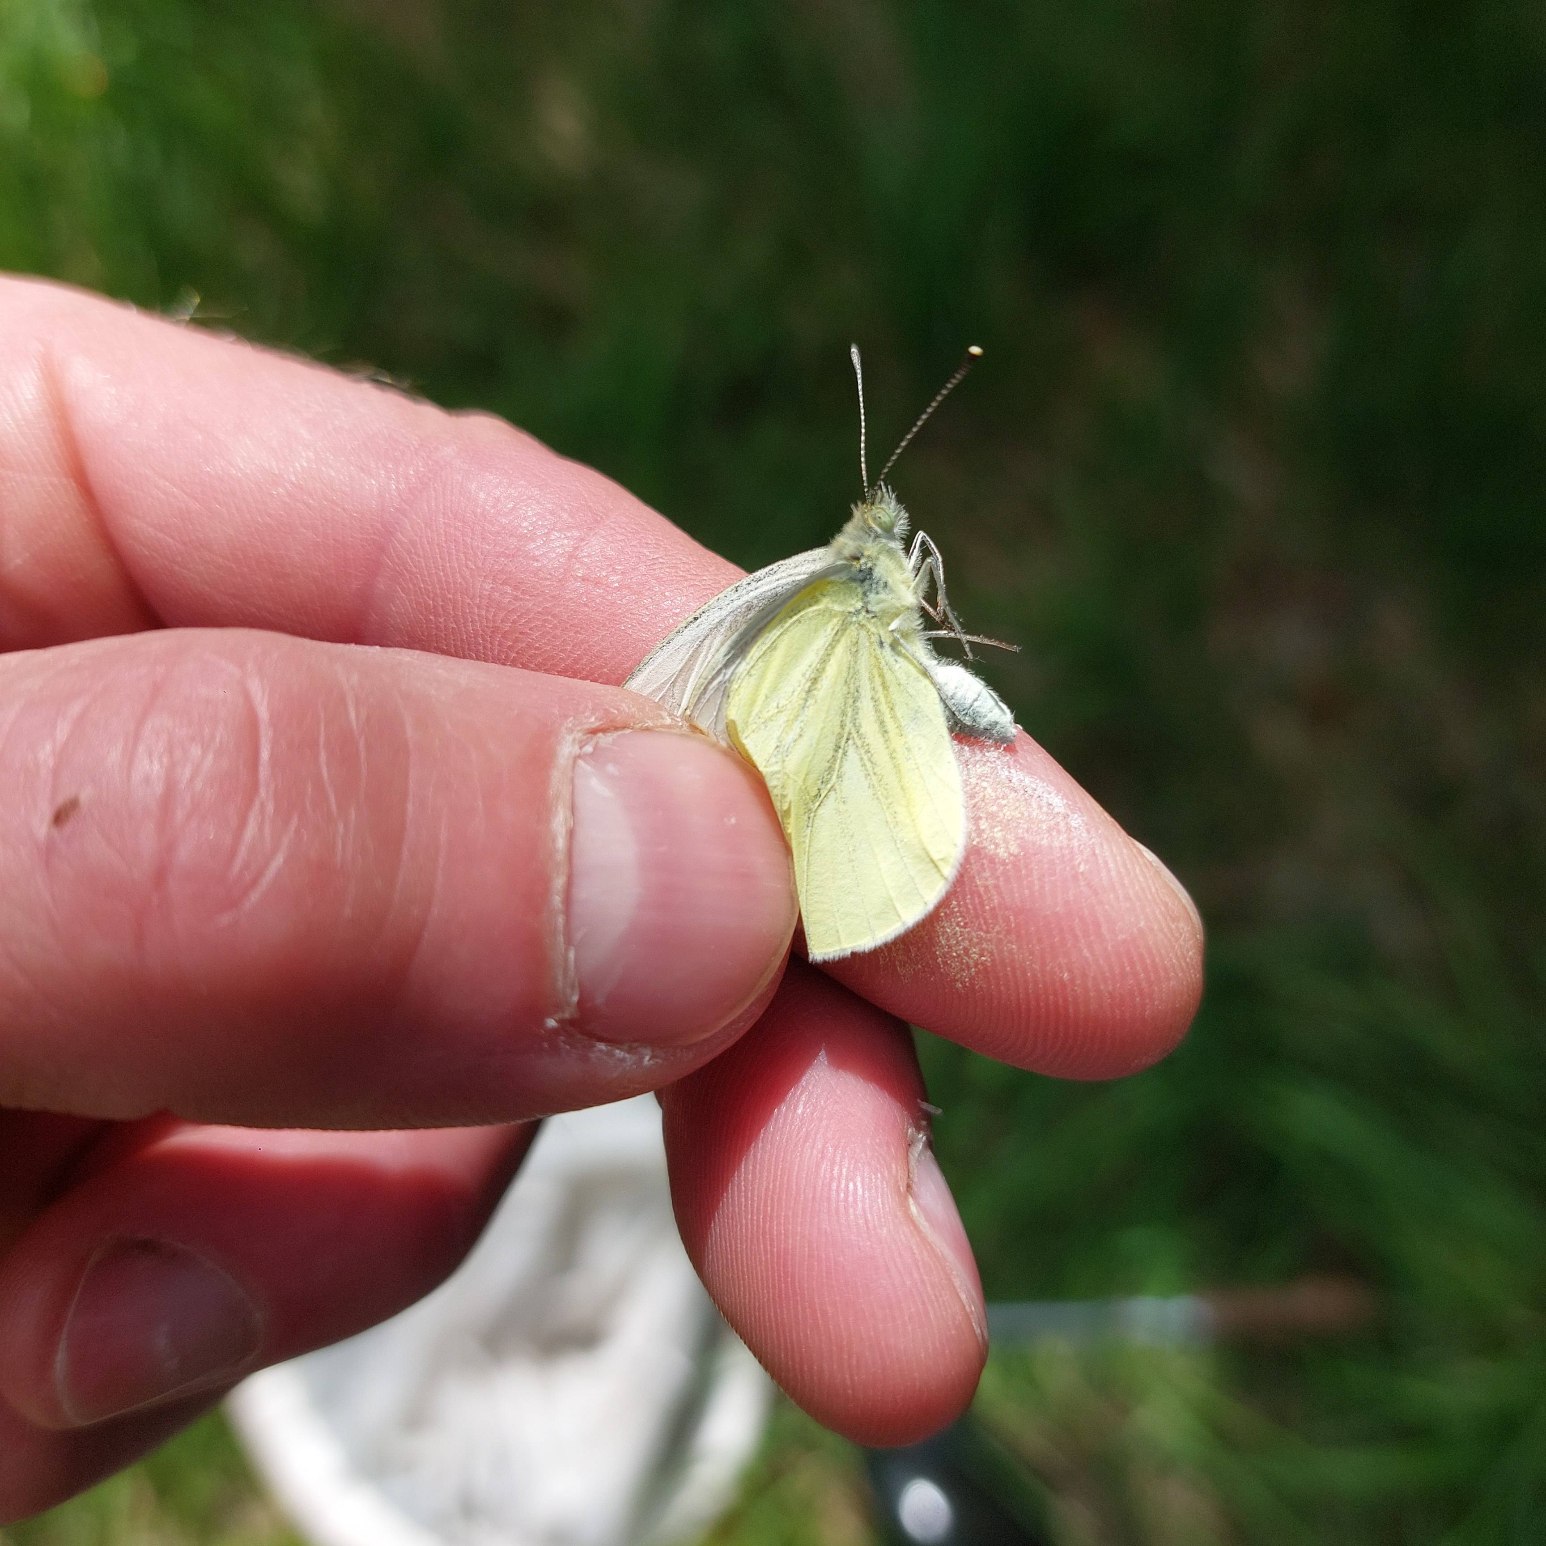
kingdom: Animalia
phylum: Arthropoda
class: Insecta
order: Lepidoptera
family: Pieridae
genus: Pieris
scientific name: Pieris napi
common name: Grønåret kålsommerfugl
